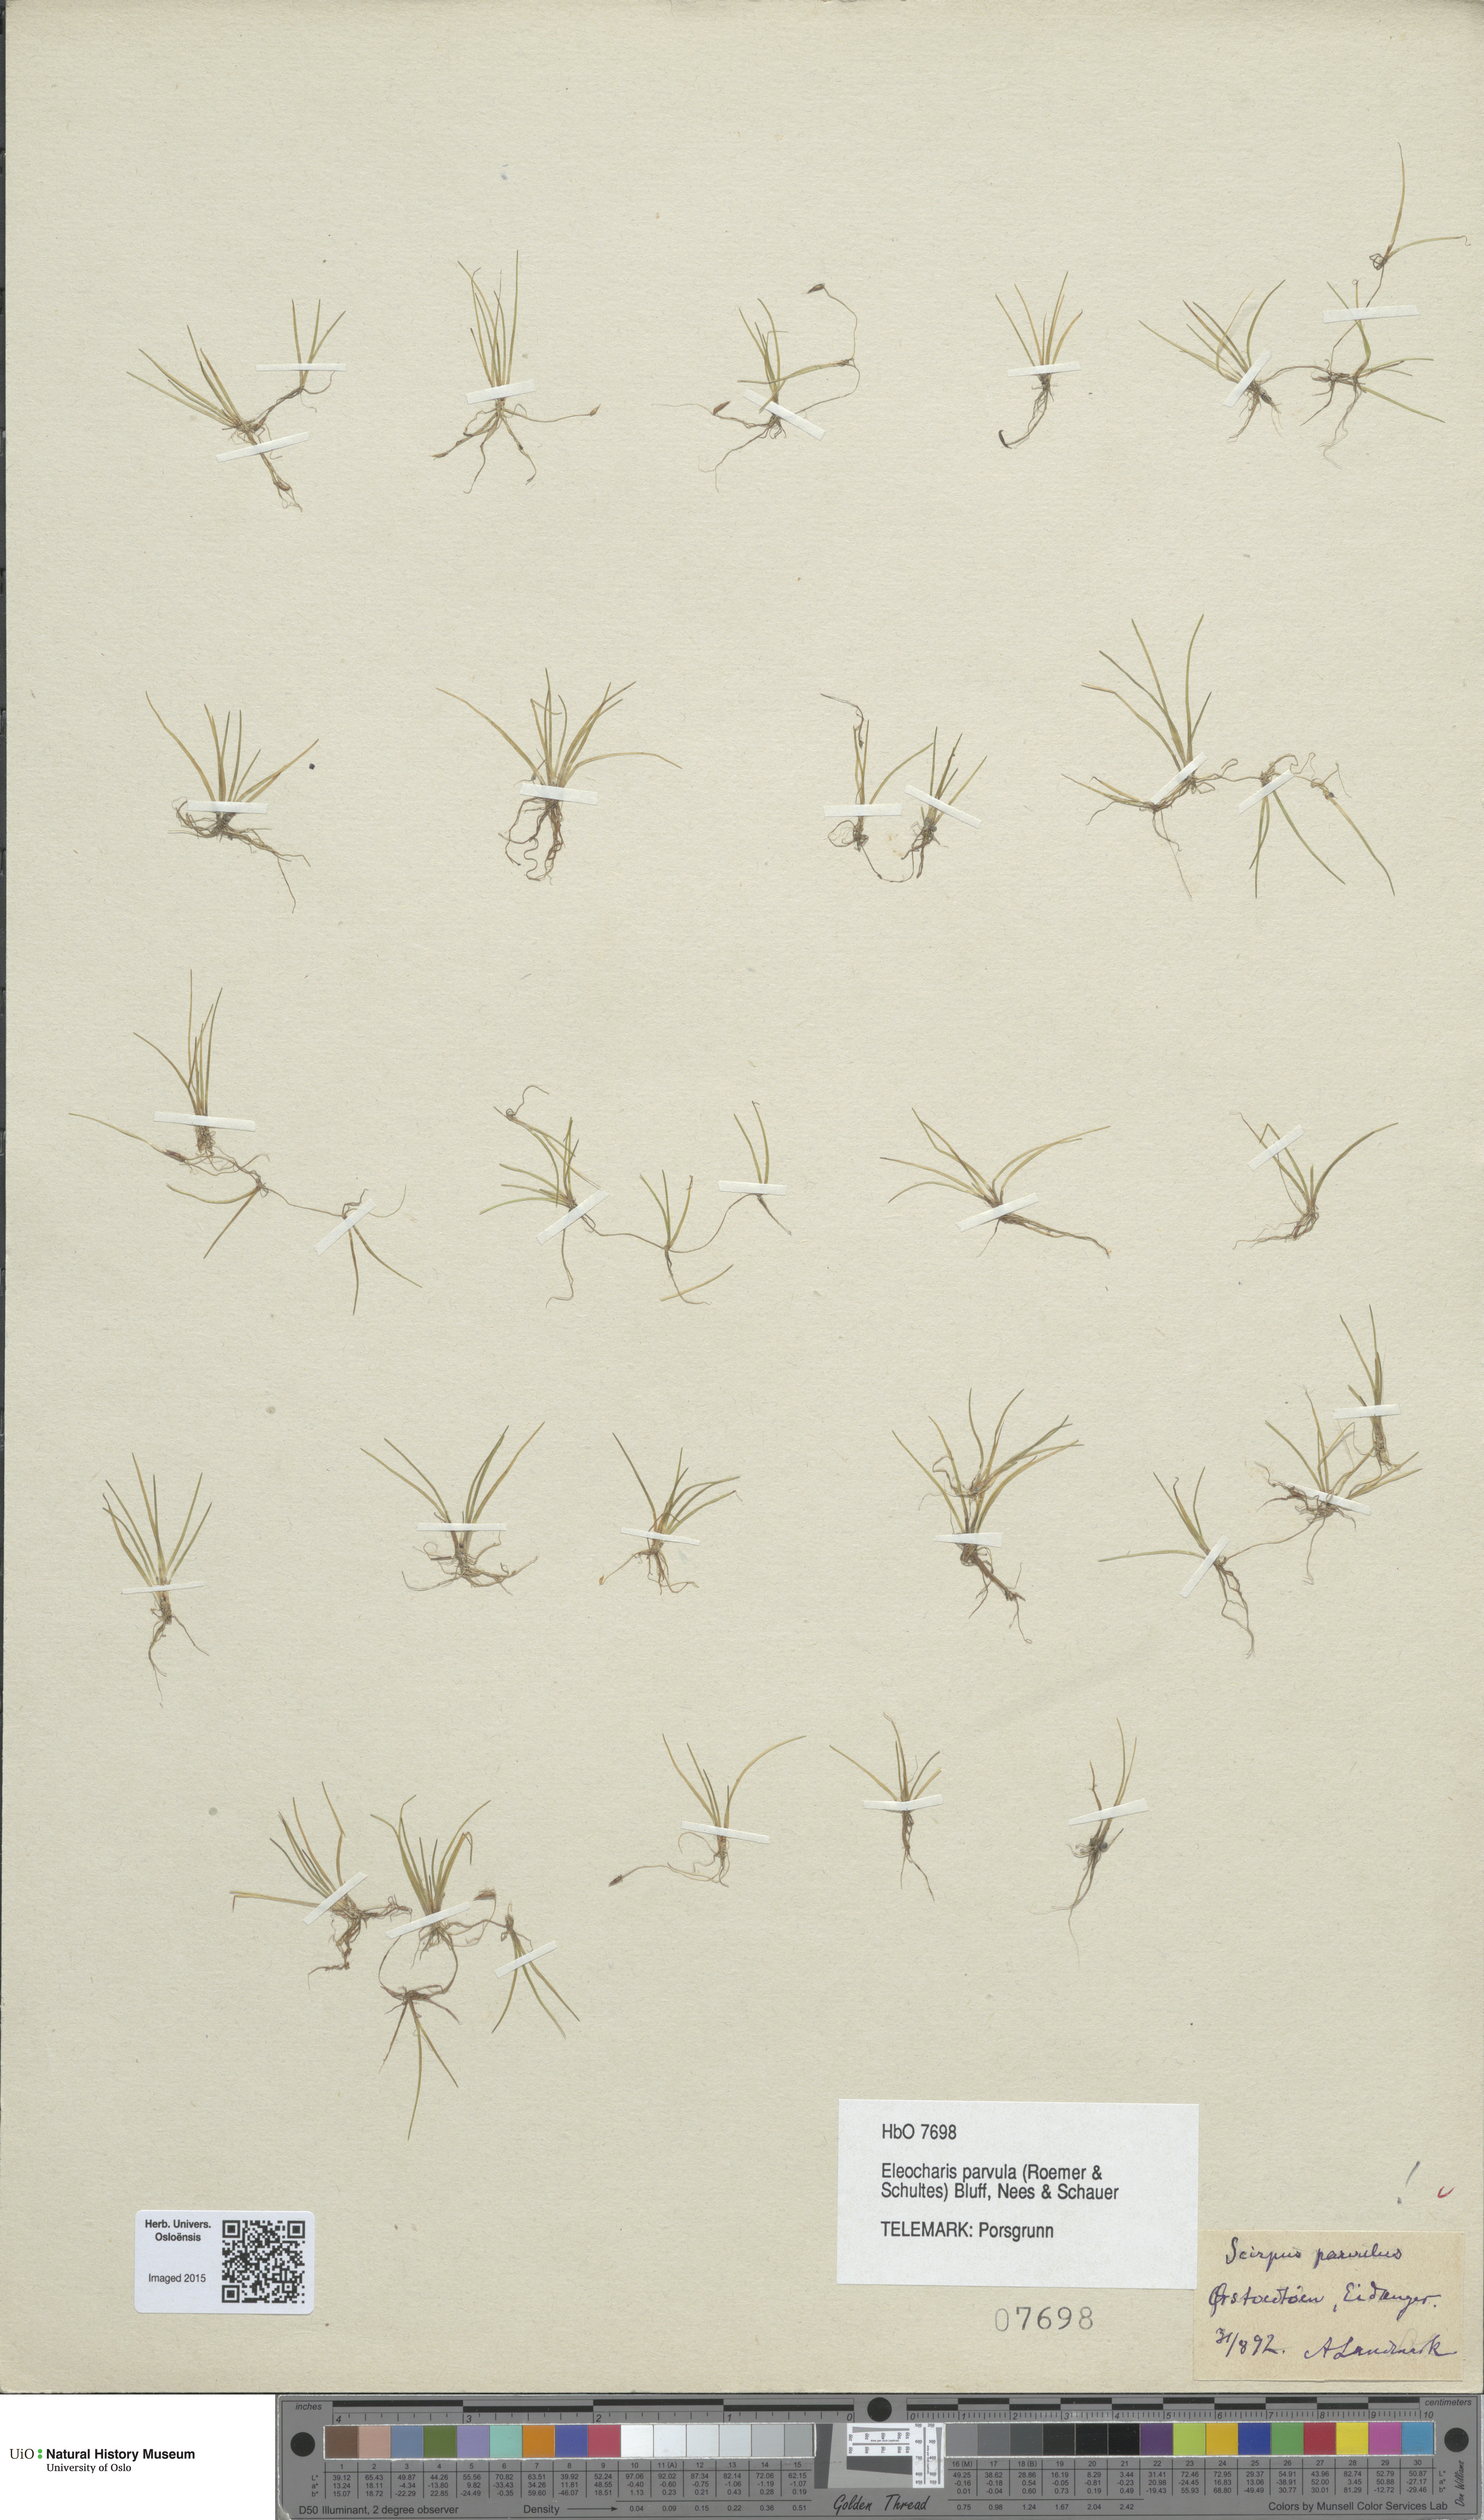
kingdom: Plantae
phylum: Tracheophyta
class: Liliopsida
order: Poales
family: Cyperaceae
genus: Eleocharis
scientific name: Eleocharis parvula
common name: Dwarf spike-rush
